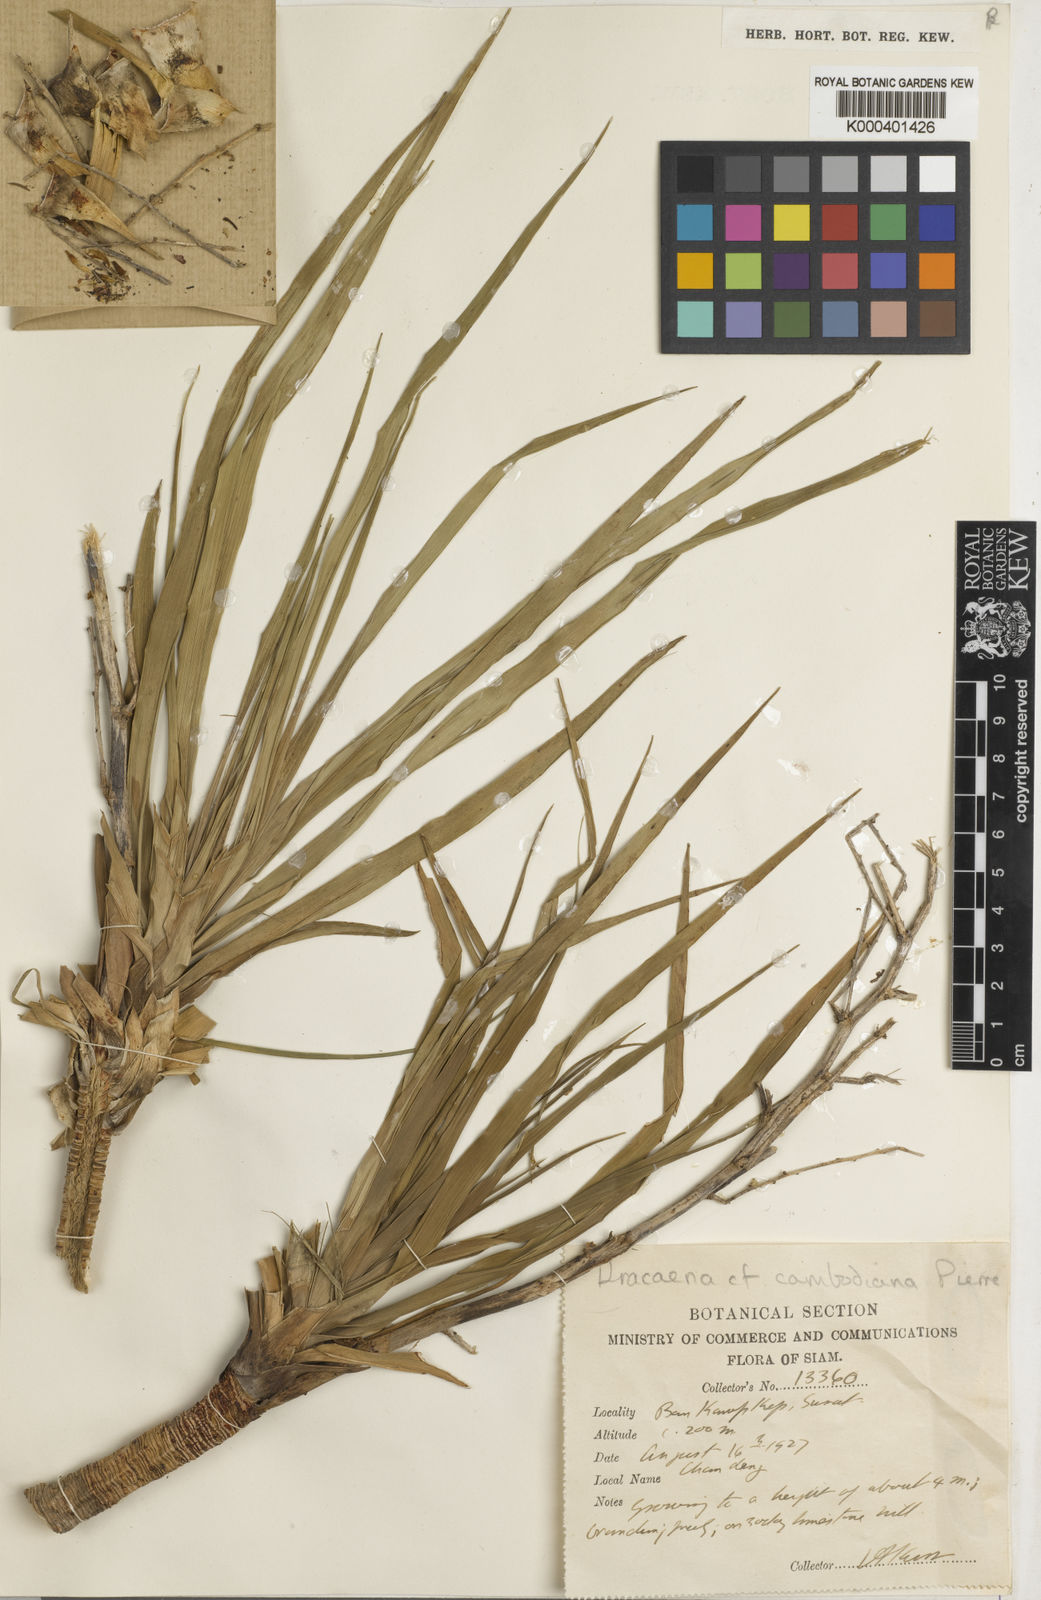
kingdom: Plantae
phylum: Tracheophyta
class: Liliopsida
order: Asparagales
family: Asparagaceae
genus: Dracaena
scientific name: Dracaena cambodiana
